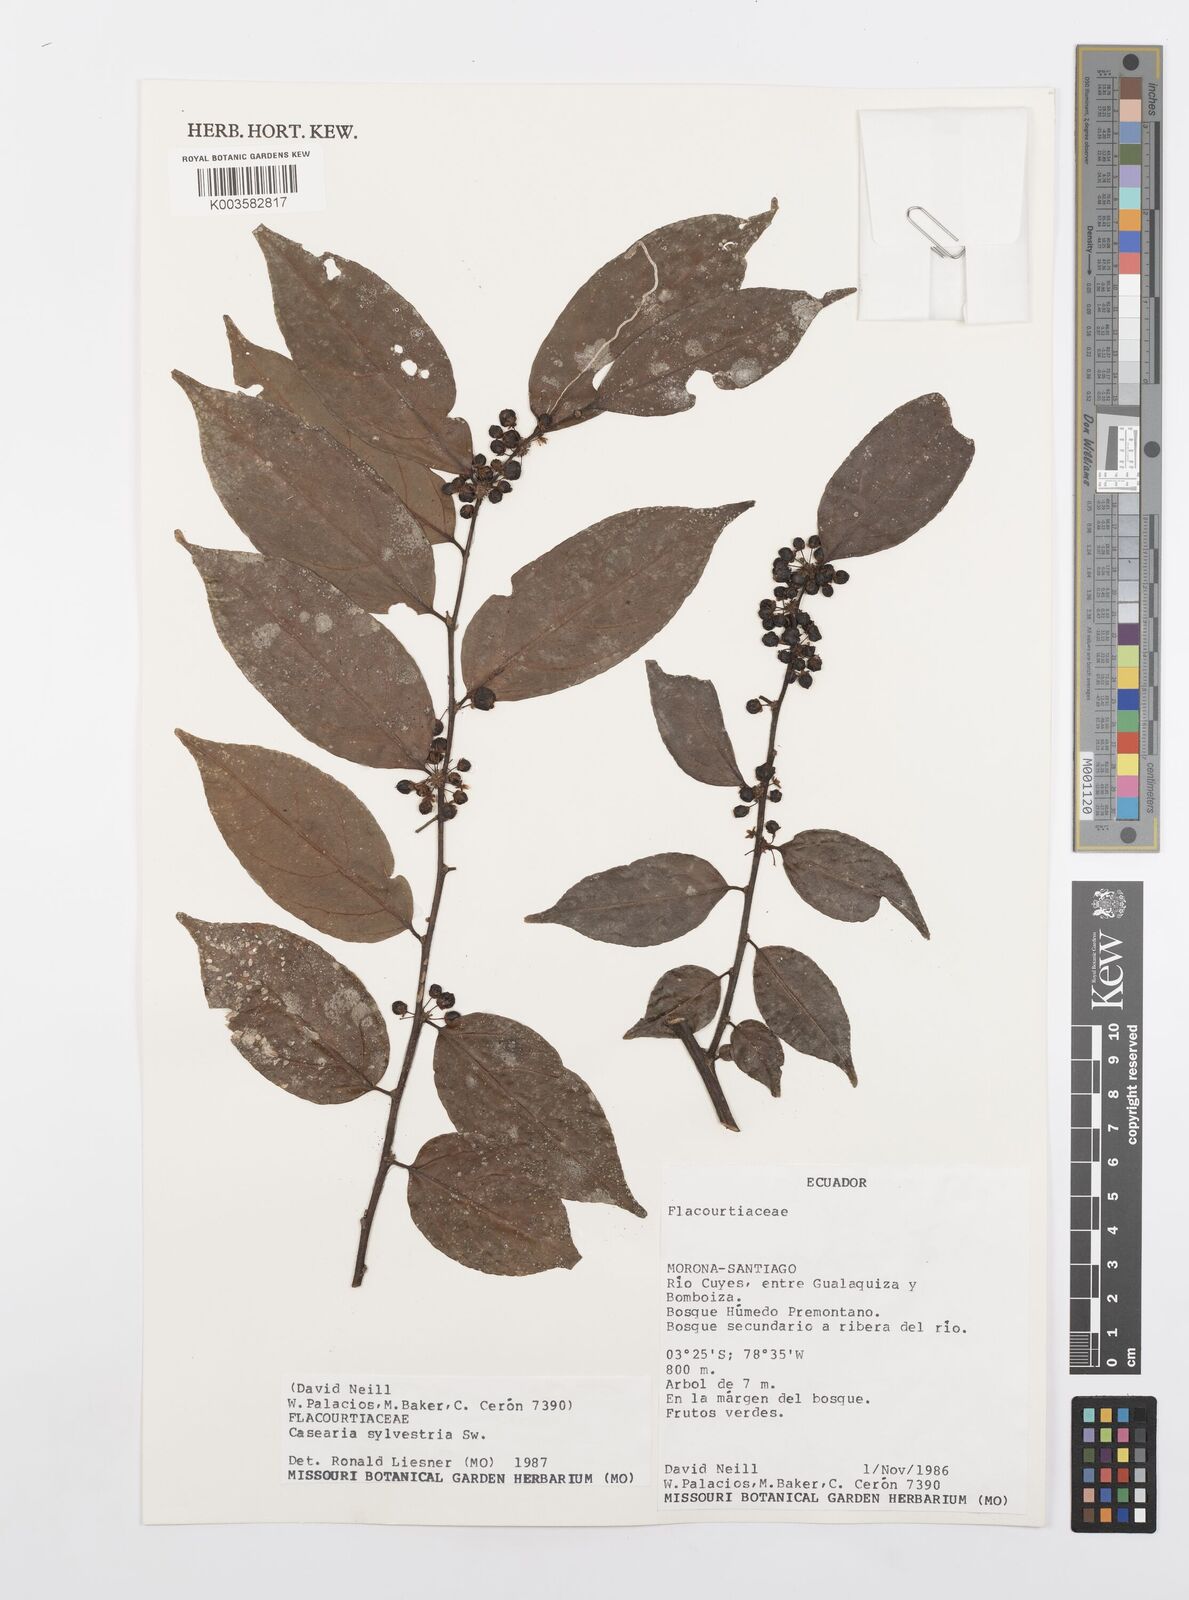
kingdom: Plantae
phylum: Tracheophyta
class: Magnoliopsida
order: Malpighiales
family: Salicaceae
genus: Casearia
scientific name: Casearia sylvestris
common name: Wild sage
